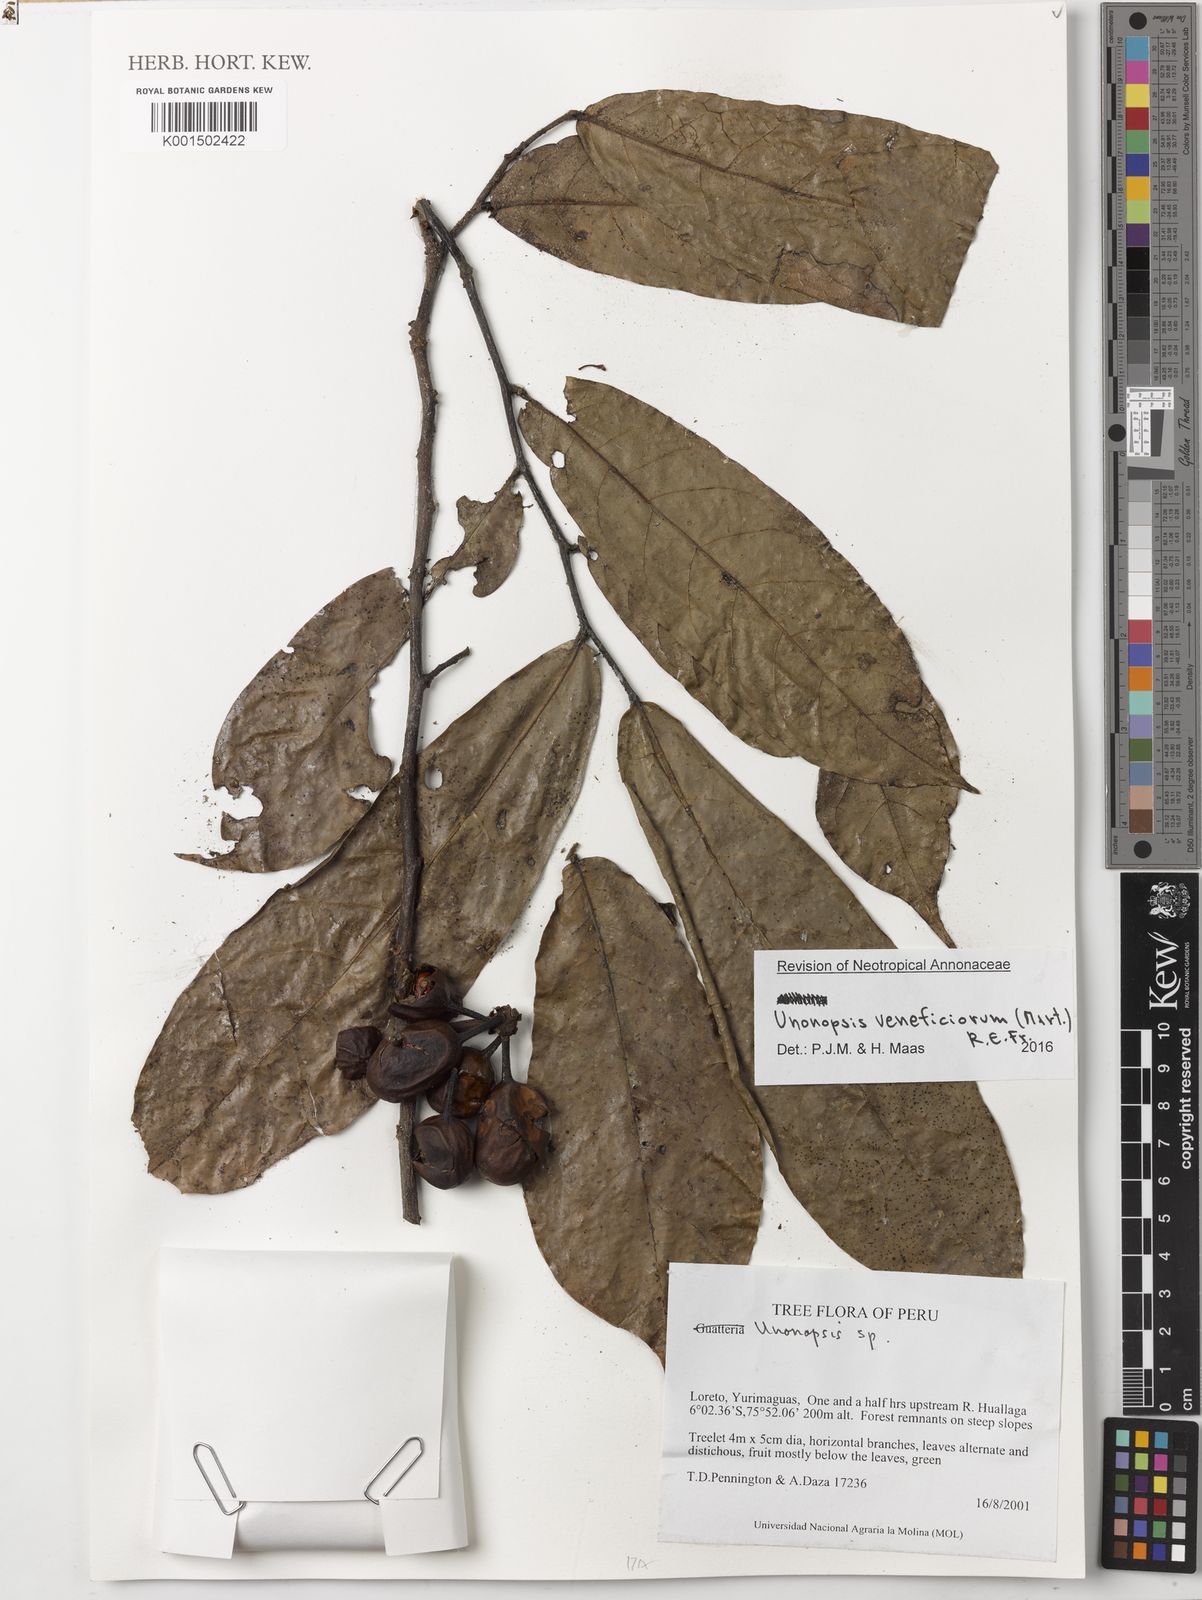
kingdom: Plantae
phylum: Tracheophyta
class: Magnoliopsida
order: Magnoliales
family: Annonaceae
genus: Unonopsis
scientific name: Unonopsis veneficiorum
